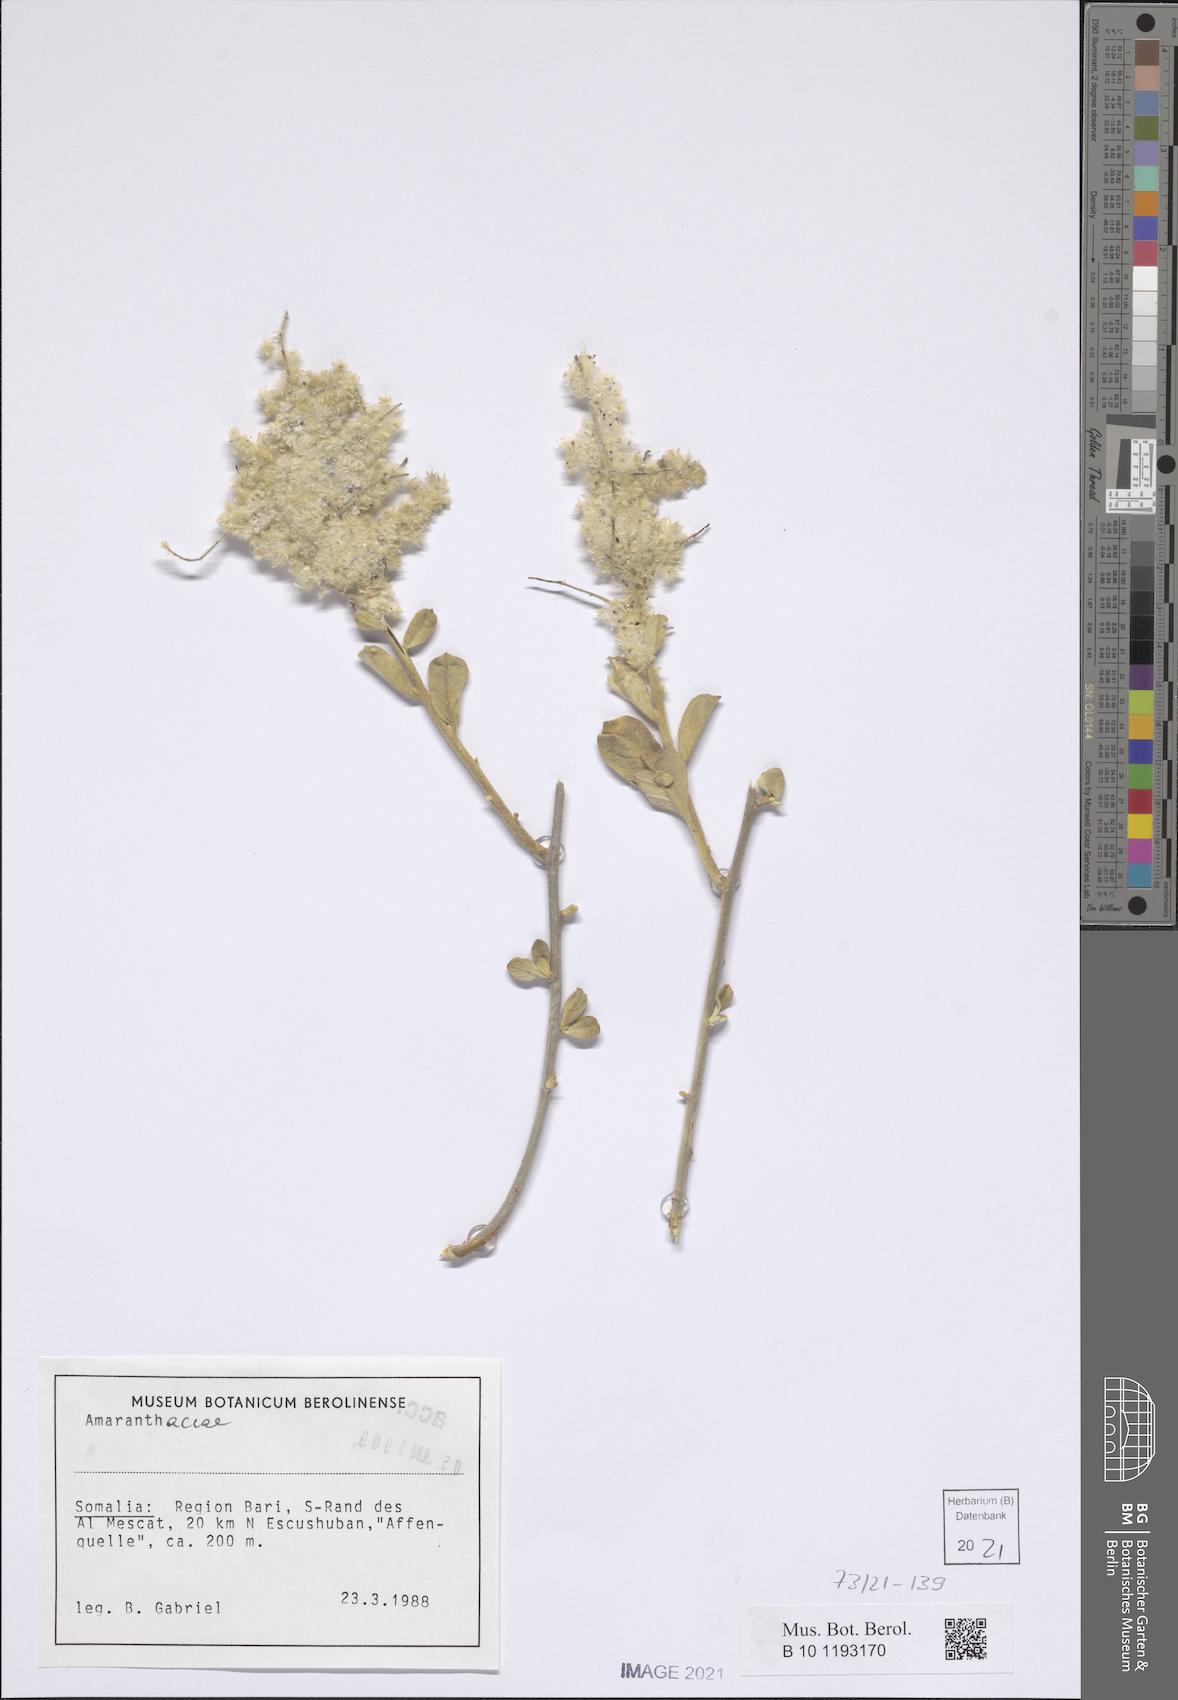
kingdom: Plantae
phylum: Tracheophyta
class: Magnoliopsida
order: Caryophyllales
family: Amaranthaceae
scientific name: Amaranthaceae
